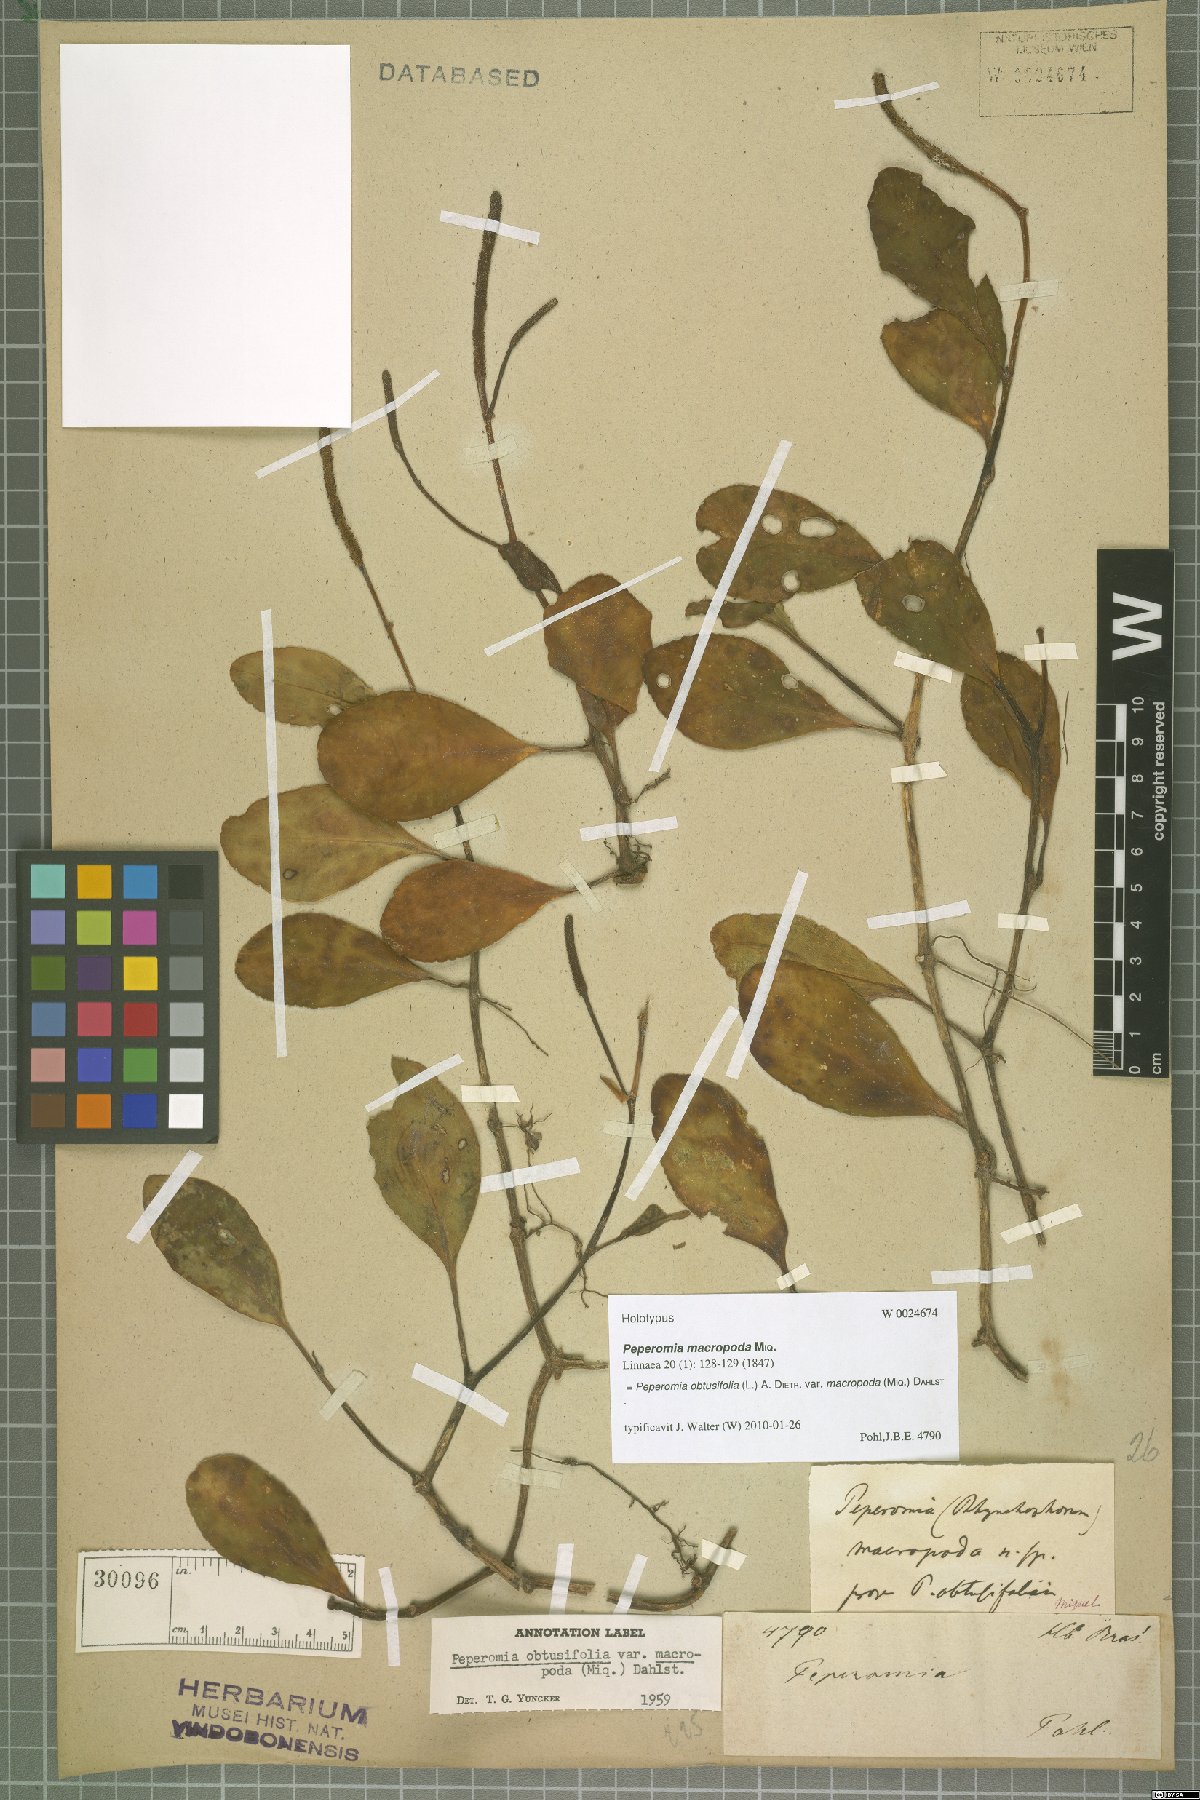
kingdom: Plantae
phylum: Tracheophyta
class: Magnoliopsida
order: Piperales
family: Piperaceae
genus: Peperomia
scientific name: Peperomia obtusifolia
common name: Baby rubberplant
